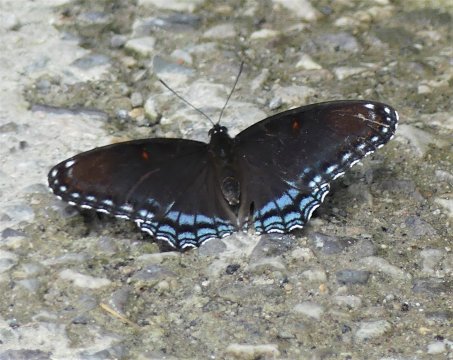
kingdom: Animalia
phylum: Arthropoda
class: Insecta
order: Lepidoptera
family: Nymphalidae
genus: Limenitis
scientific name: Limenitis arthemis
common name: Red-spotted Admiral
